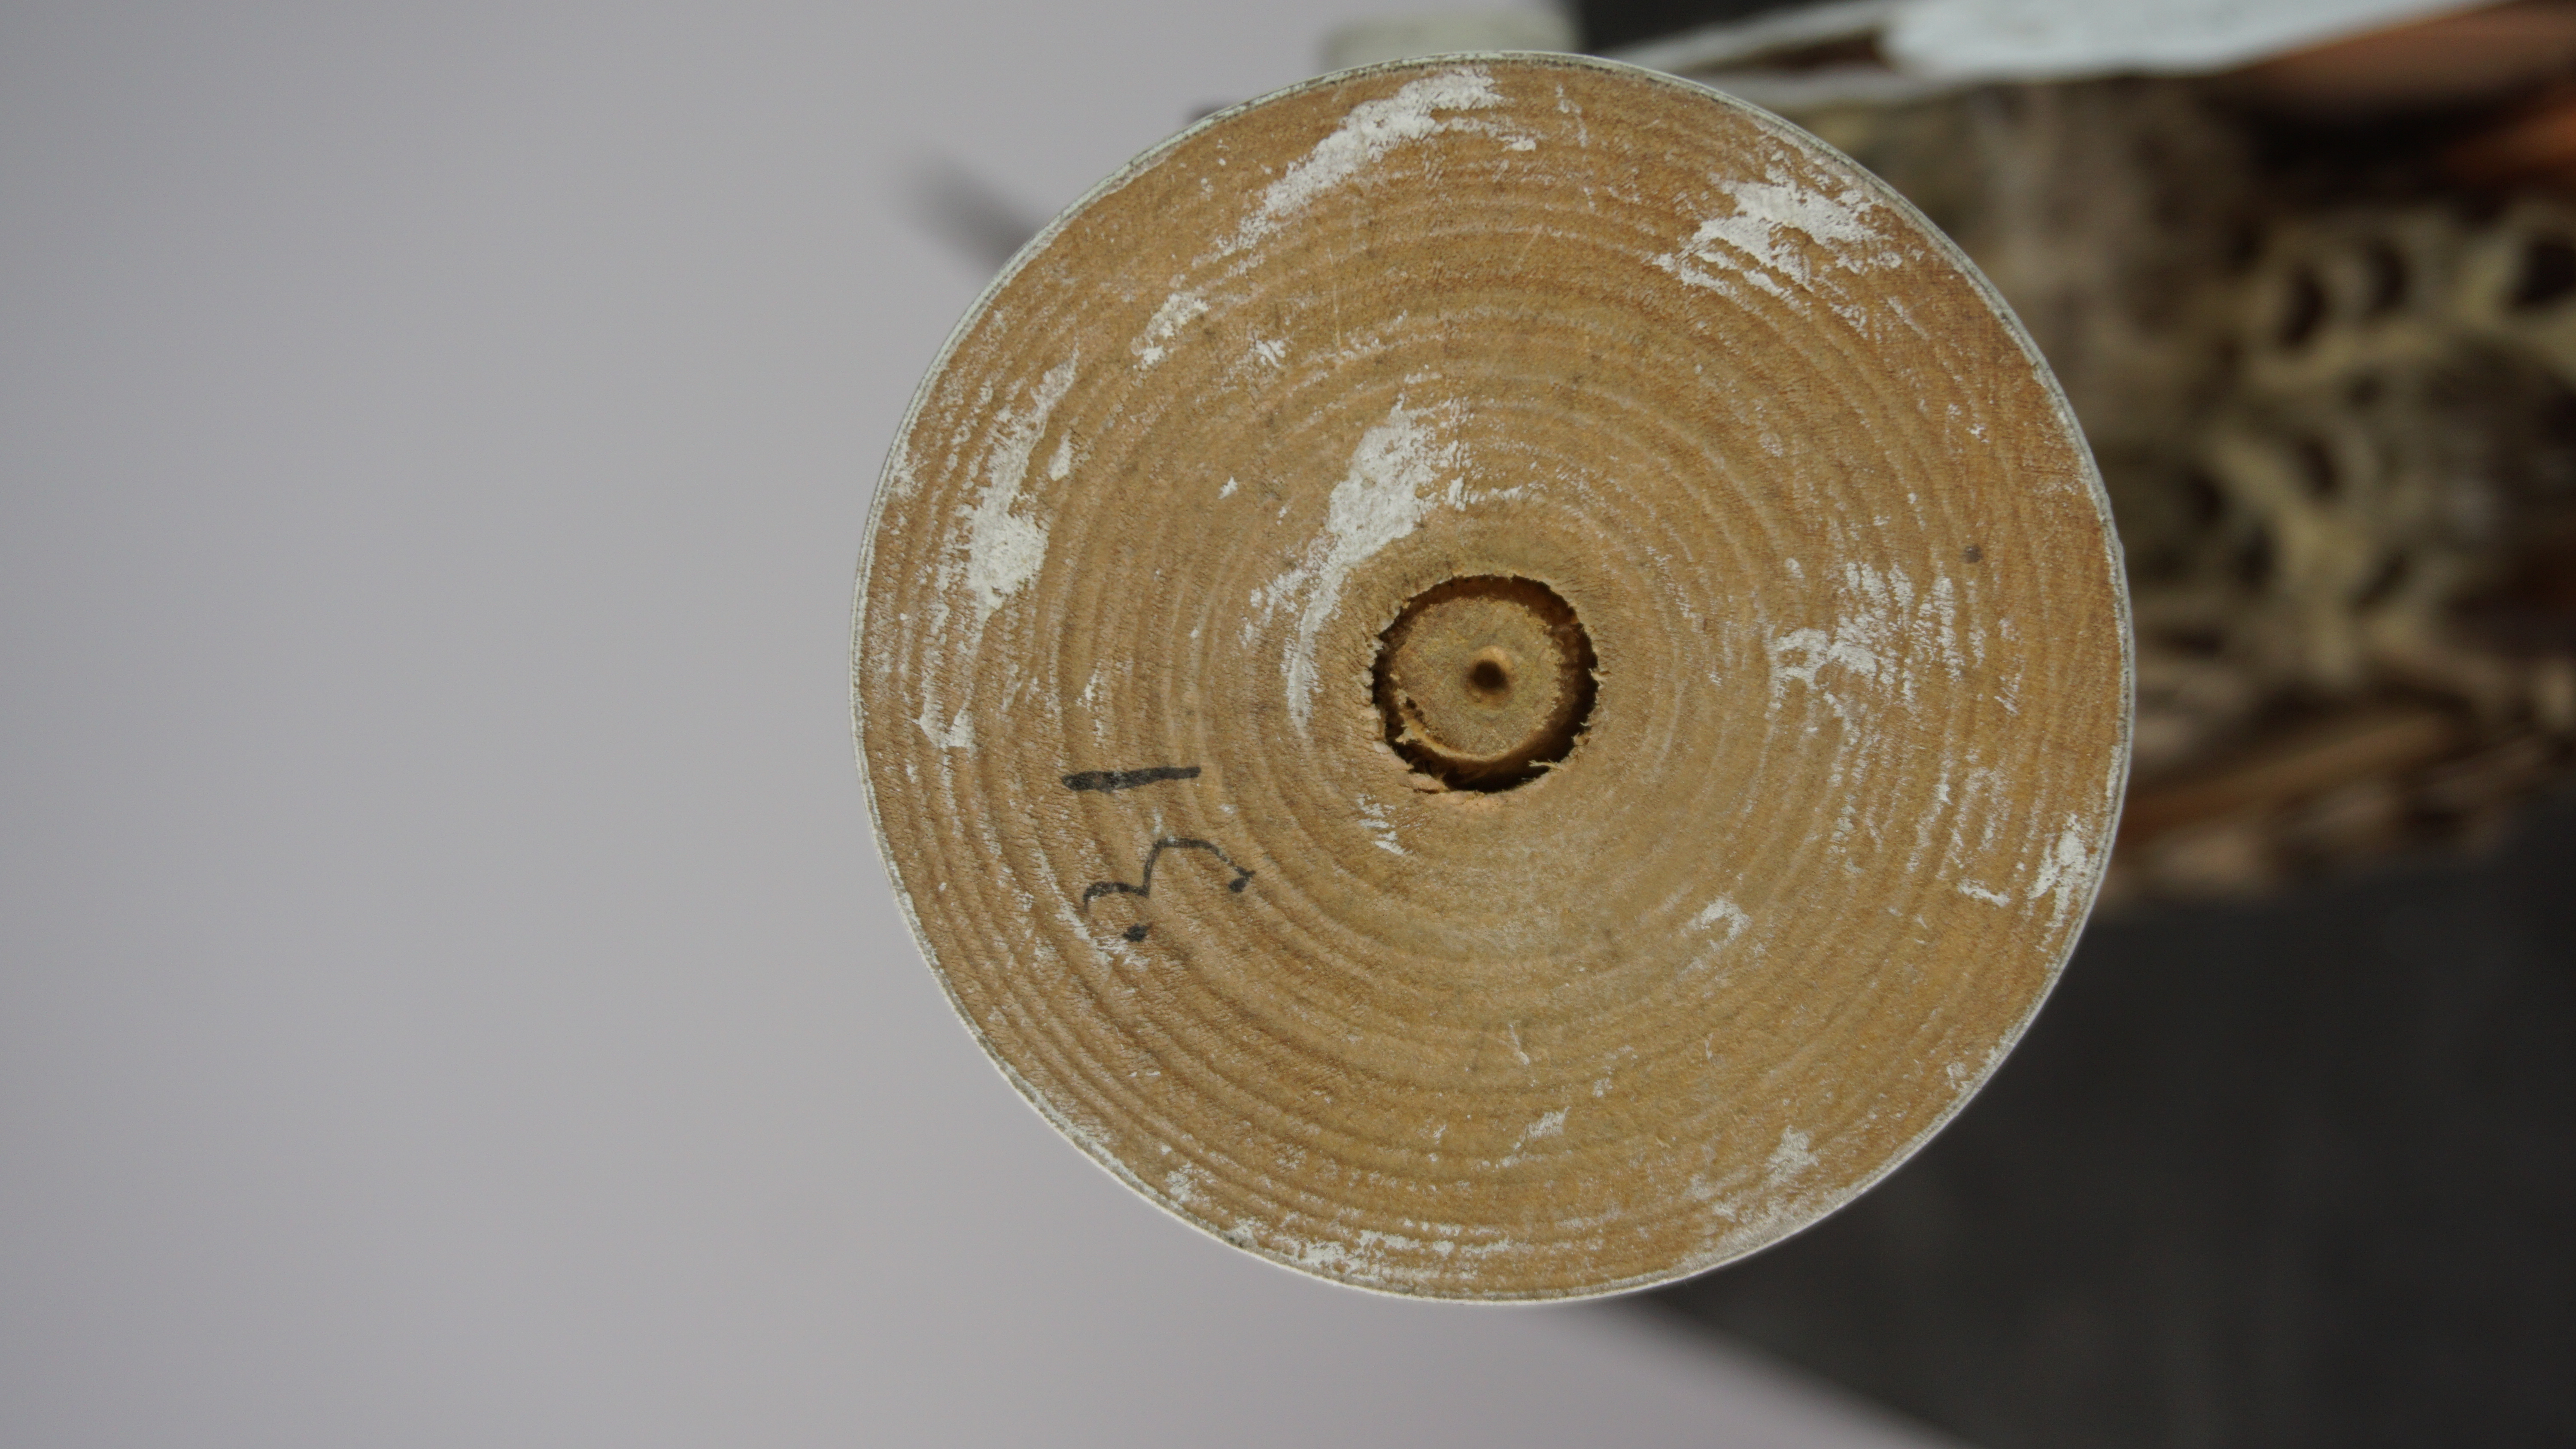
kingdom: Animalia
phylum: Chordata
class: Aves
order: Piciformes
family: Picidae
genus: Colaptes
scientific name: Colaptes auratus
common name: Northern flicker
